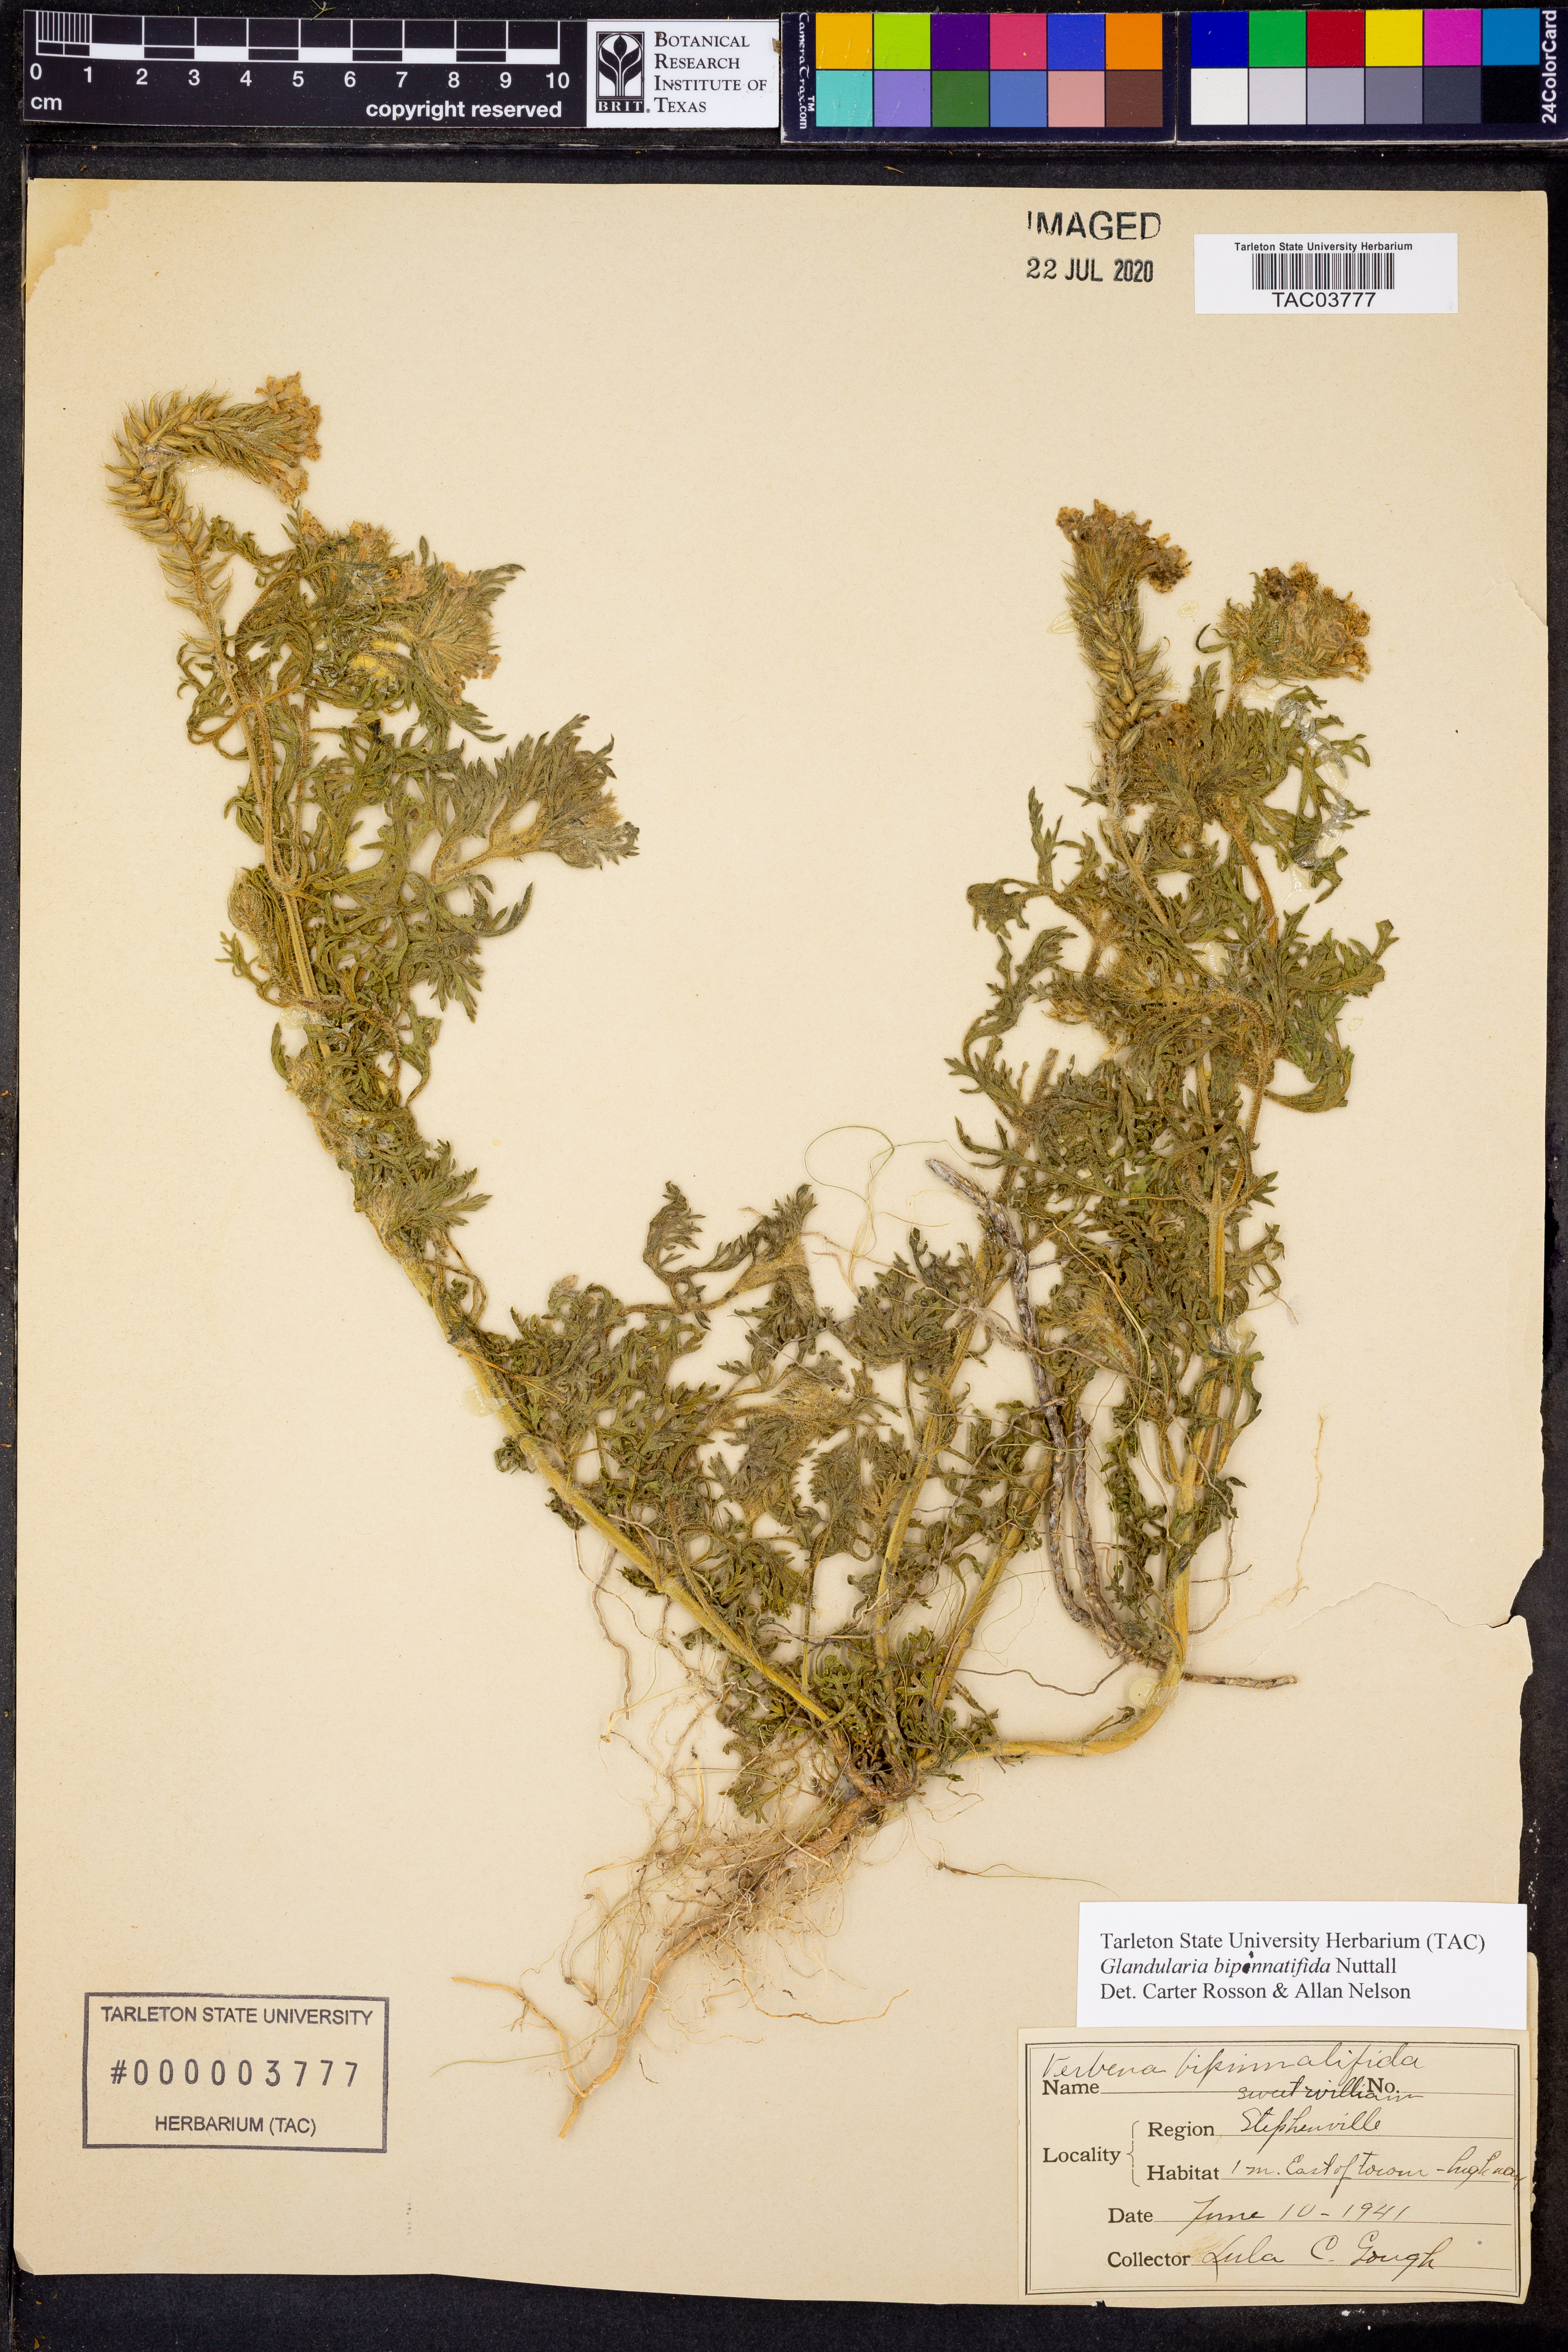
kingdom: Plantae
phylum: Tracheophyta
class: Magnoliopsida
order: Lamiales
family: Verbenaceae
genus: Verbena
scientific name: Verbena bipinnatifida
